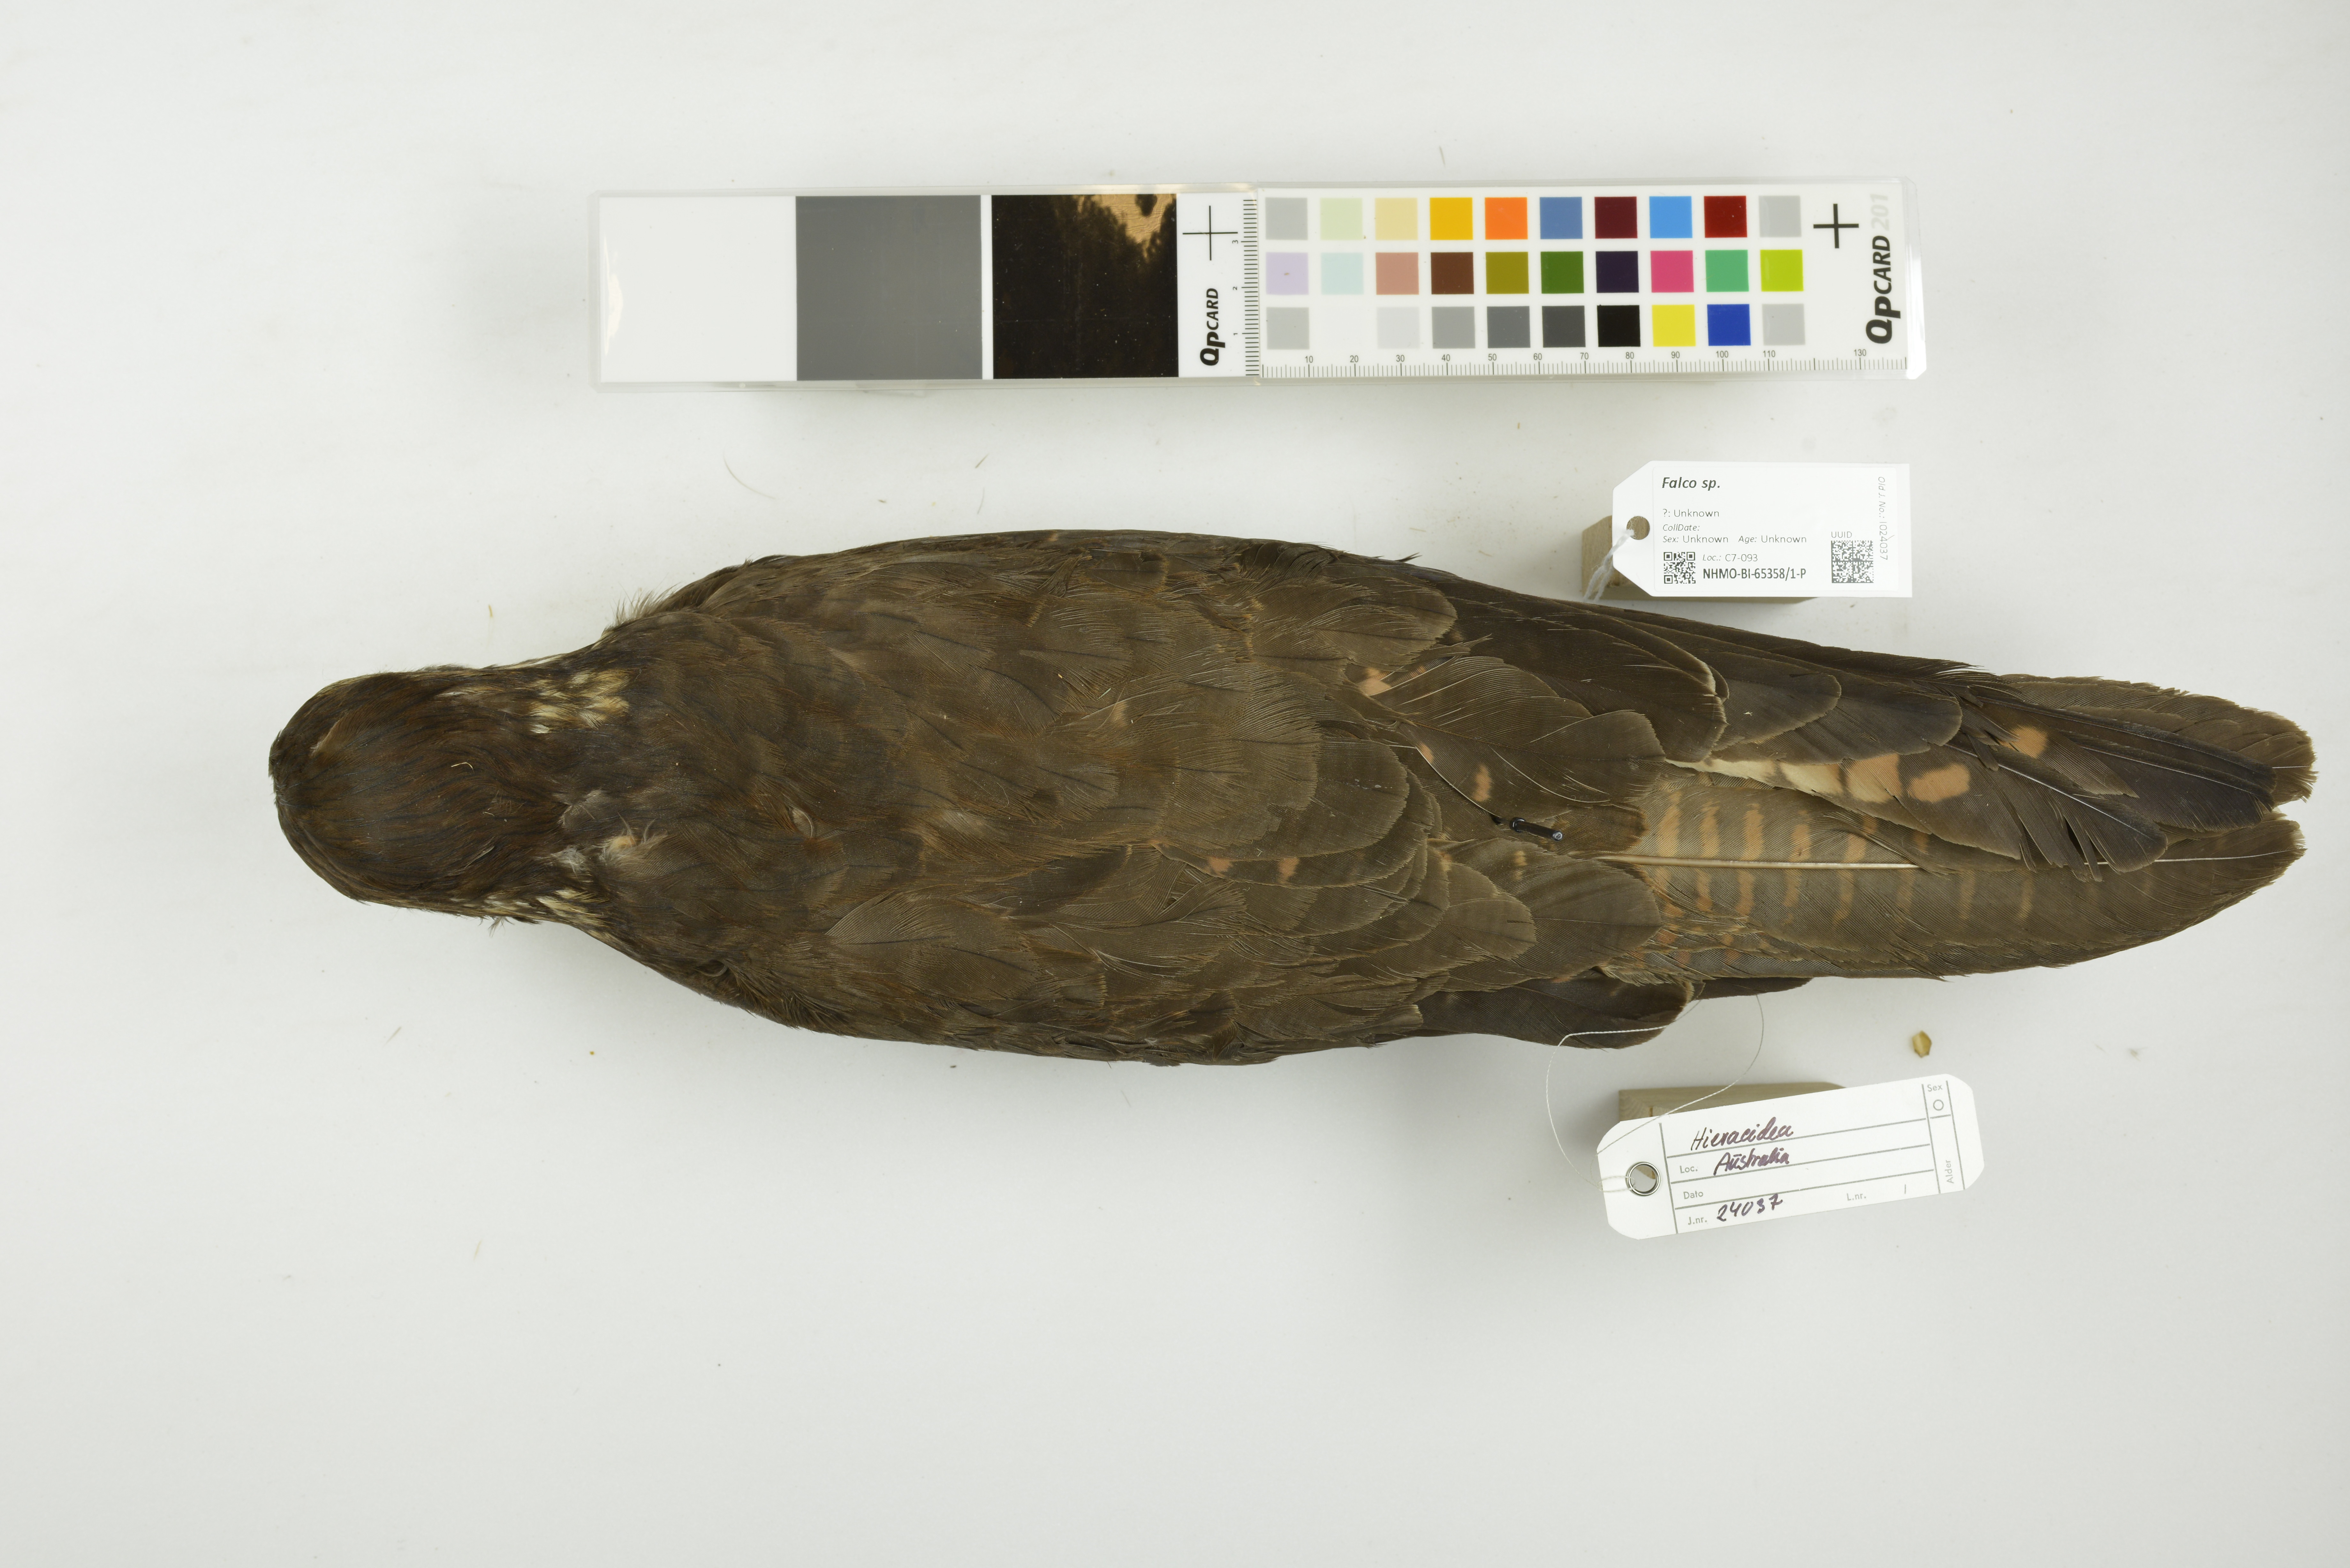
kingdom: Animalia
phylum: Chordata
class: Aves
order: Falconiformes
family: Falconidae
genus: Falco
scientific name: Falco berigora
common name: Brown falcon
